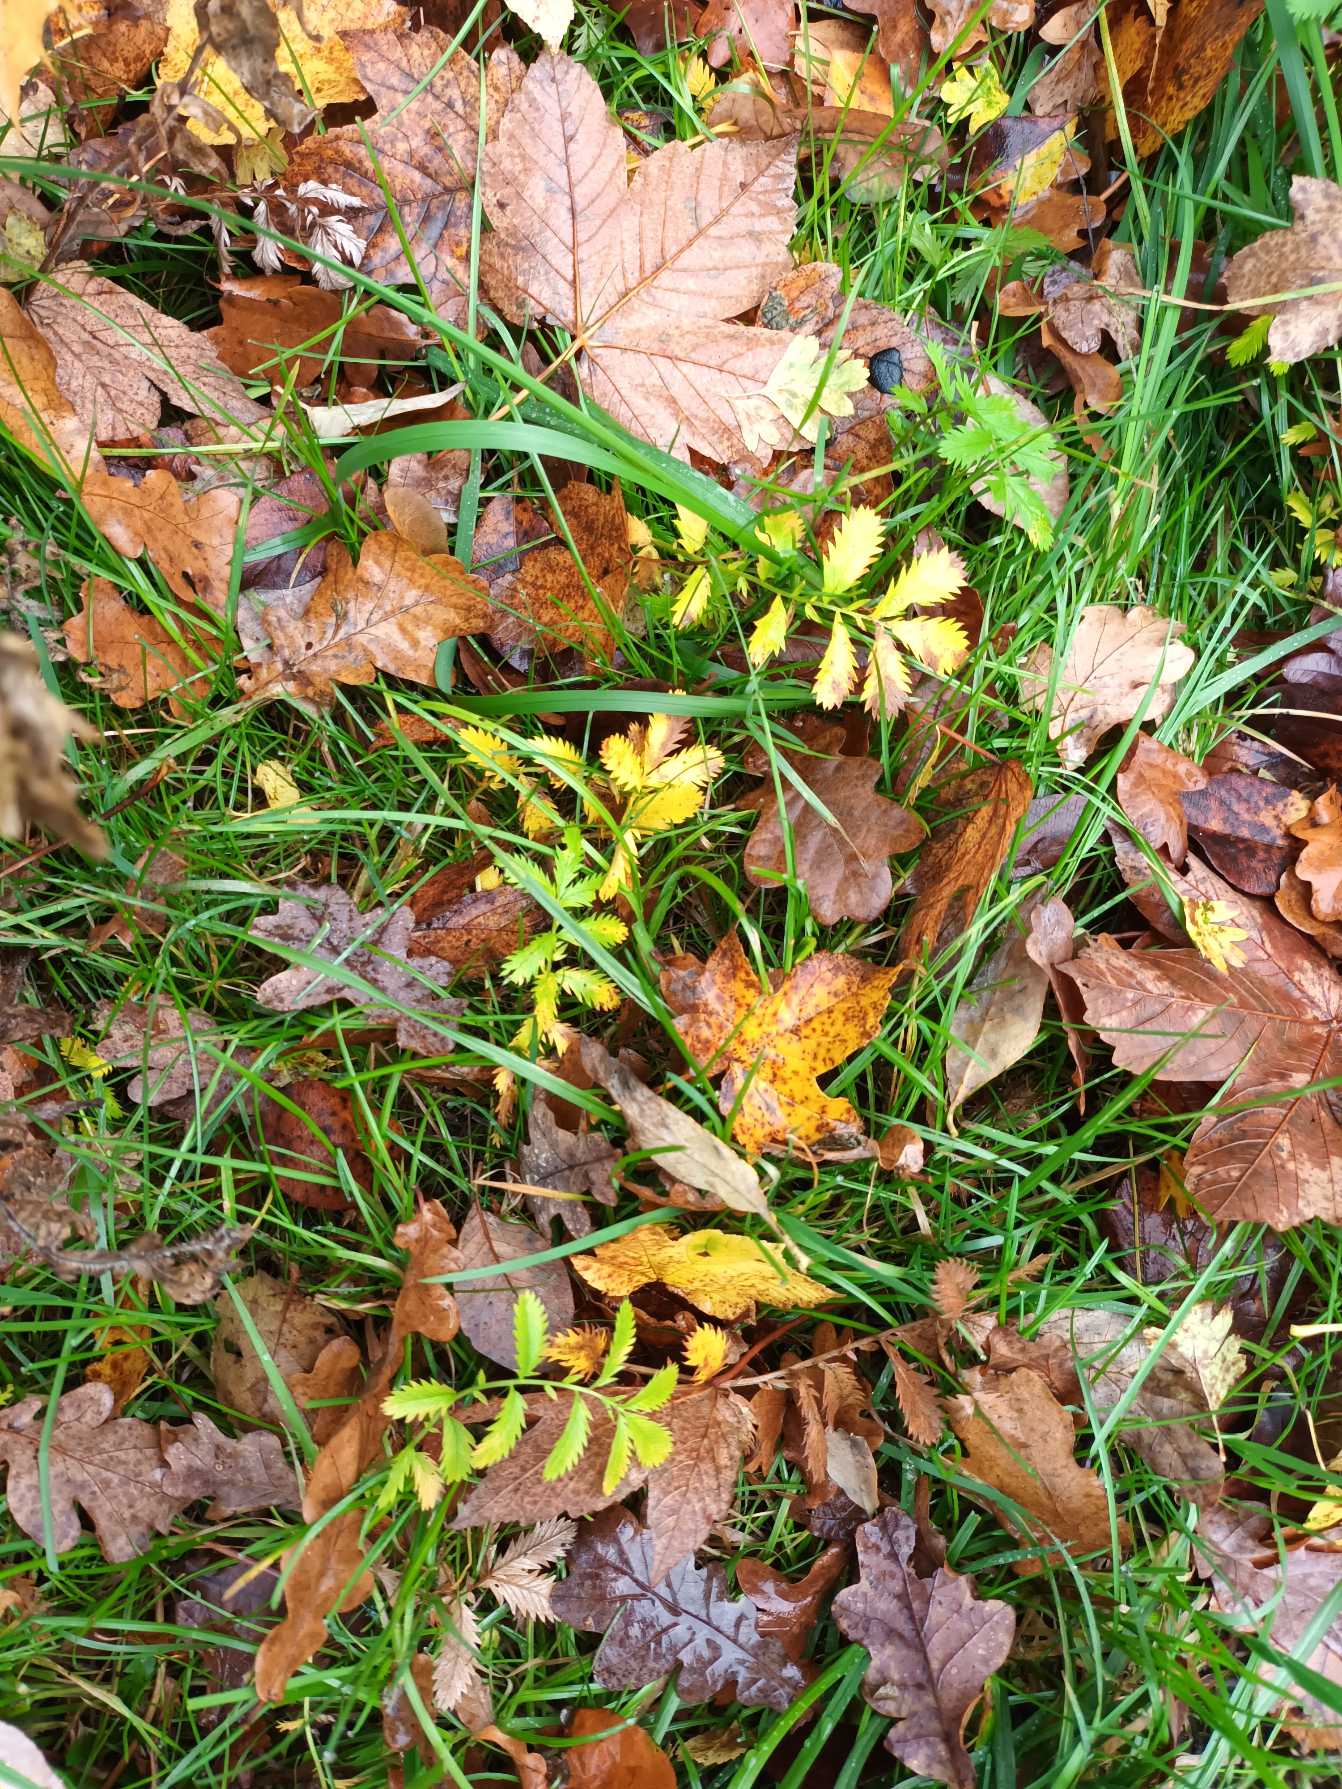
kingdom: Plantae
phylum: Tracheophyta
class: Magnoliopsida
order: Rosales
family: Rosaceae
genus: Argentina
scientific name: Argentina anserina
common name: Gåsepotentil
